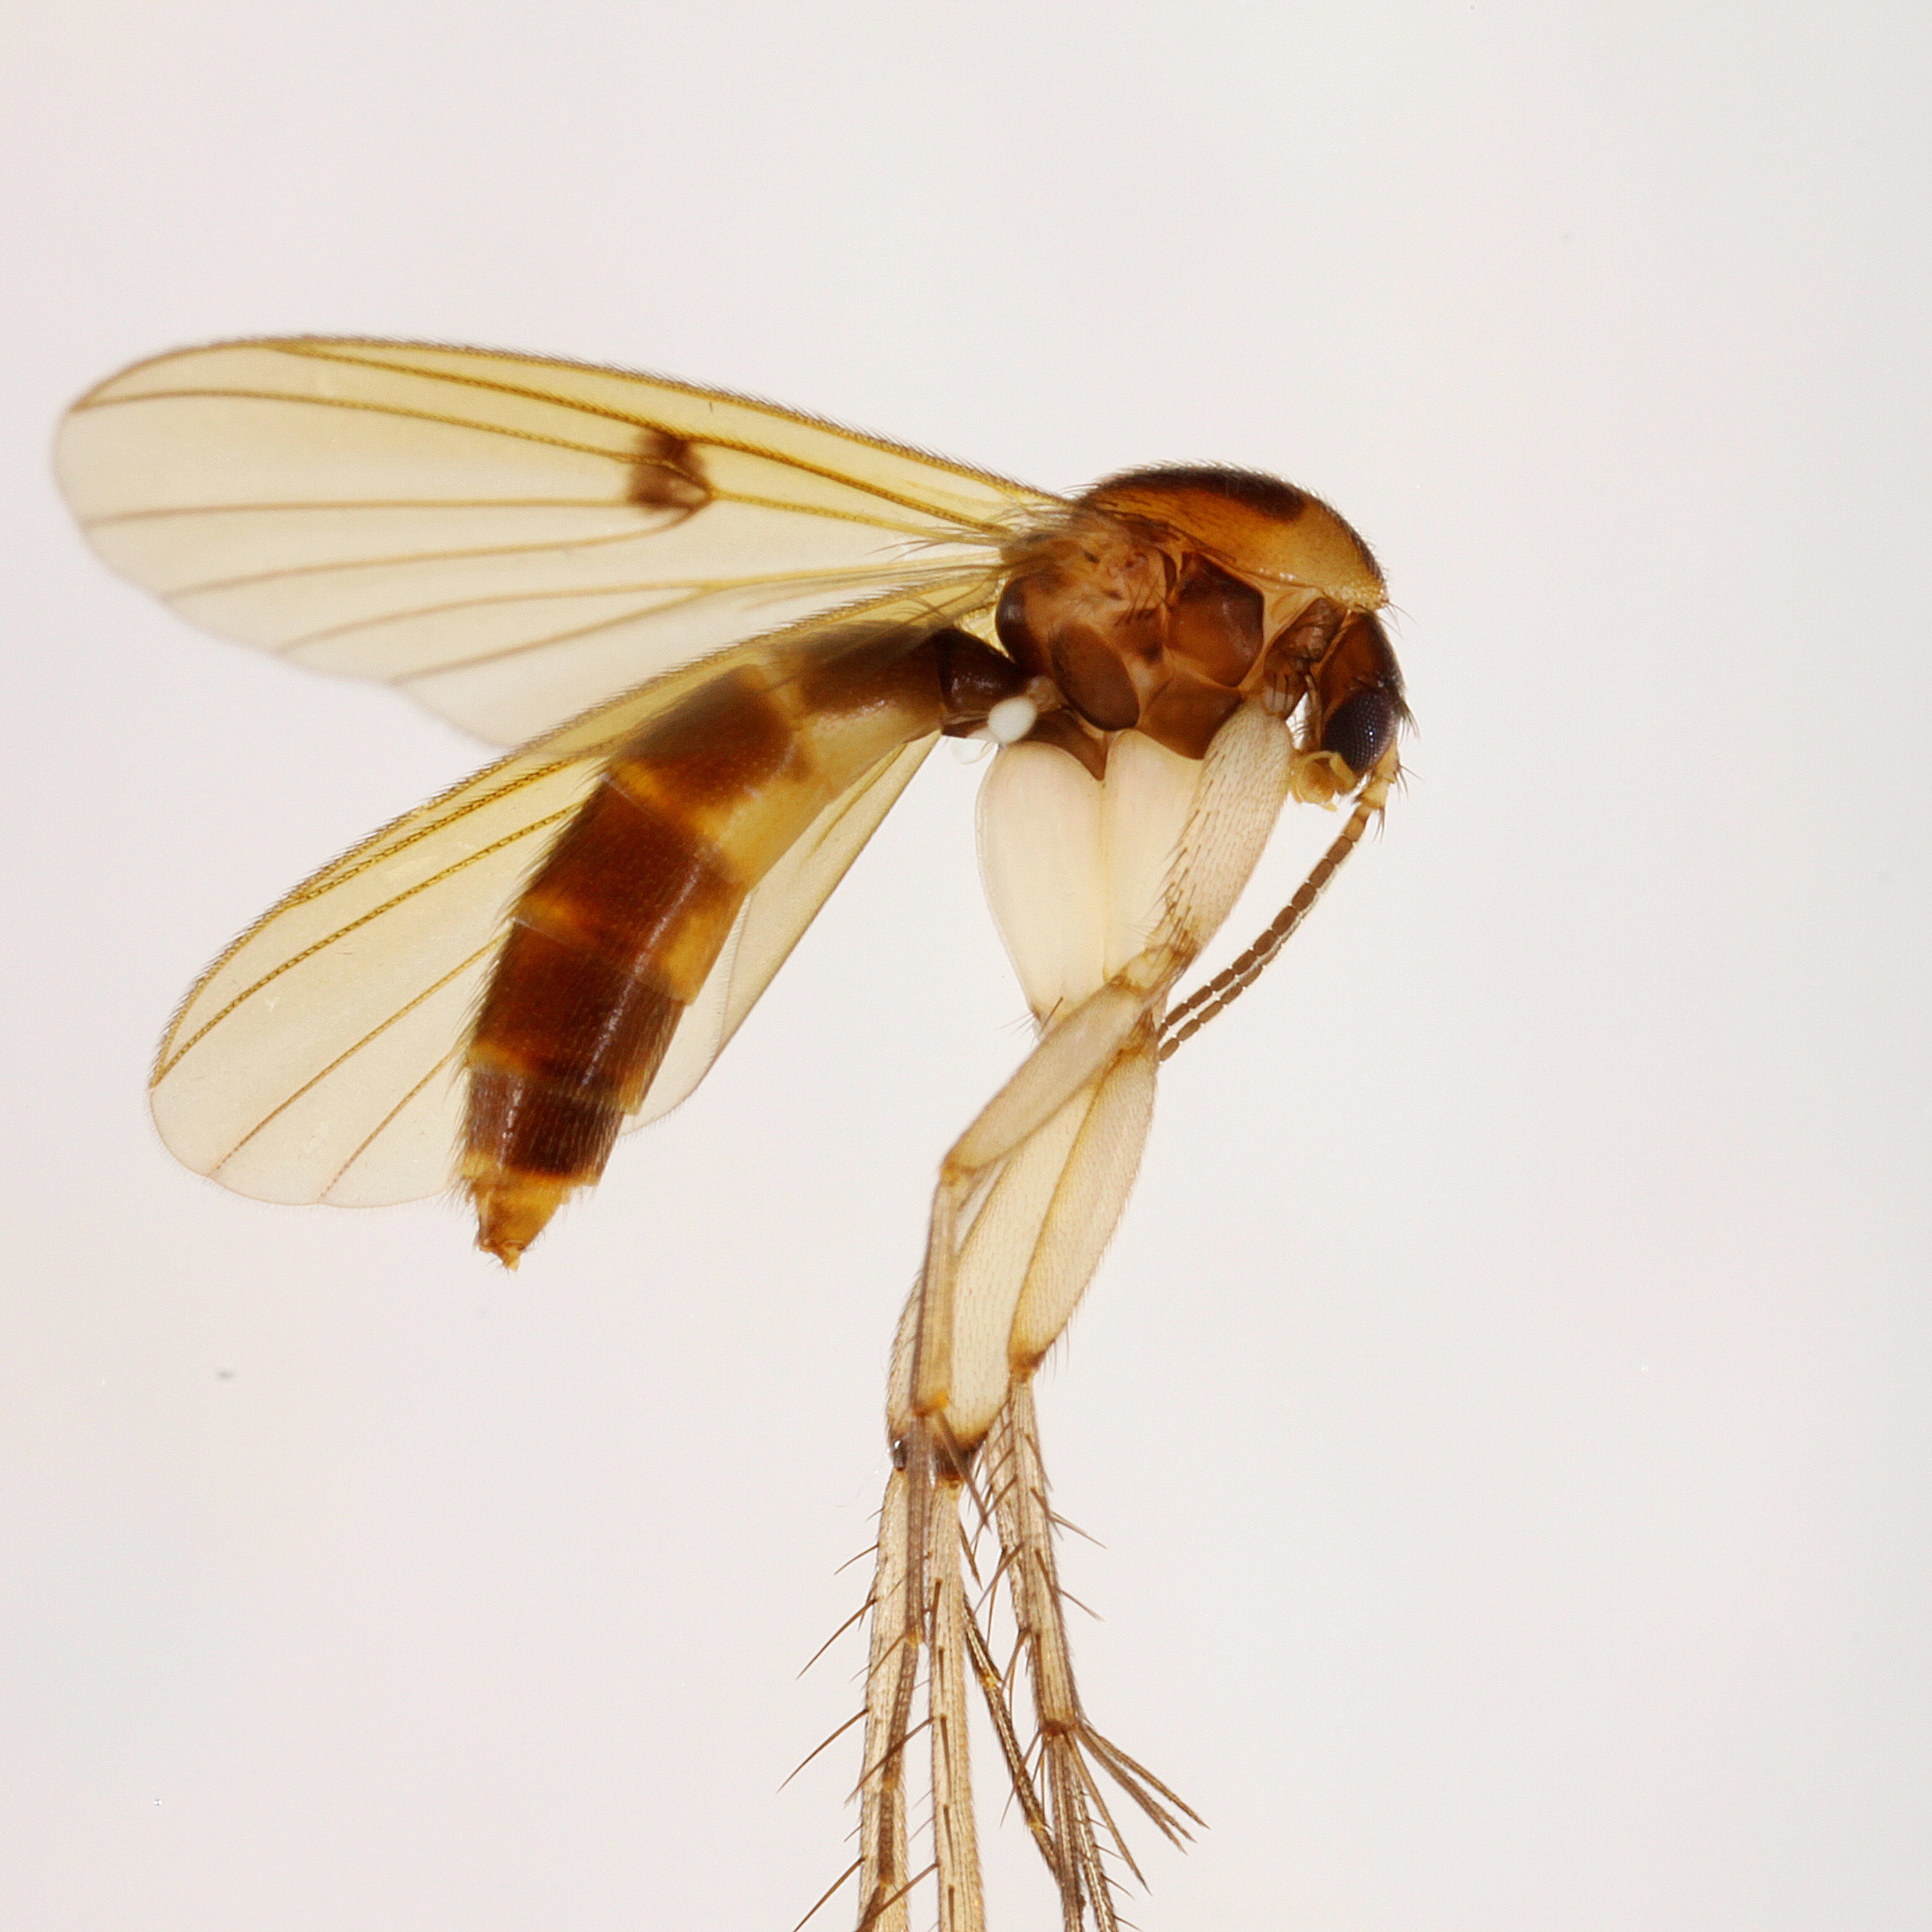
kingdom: Animalia
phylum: Arthropoda
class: Insecta
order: Diptera
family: Mycetophilidae
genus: Mycetophila
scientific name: Mycetophila confusa
